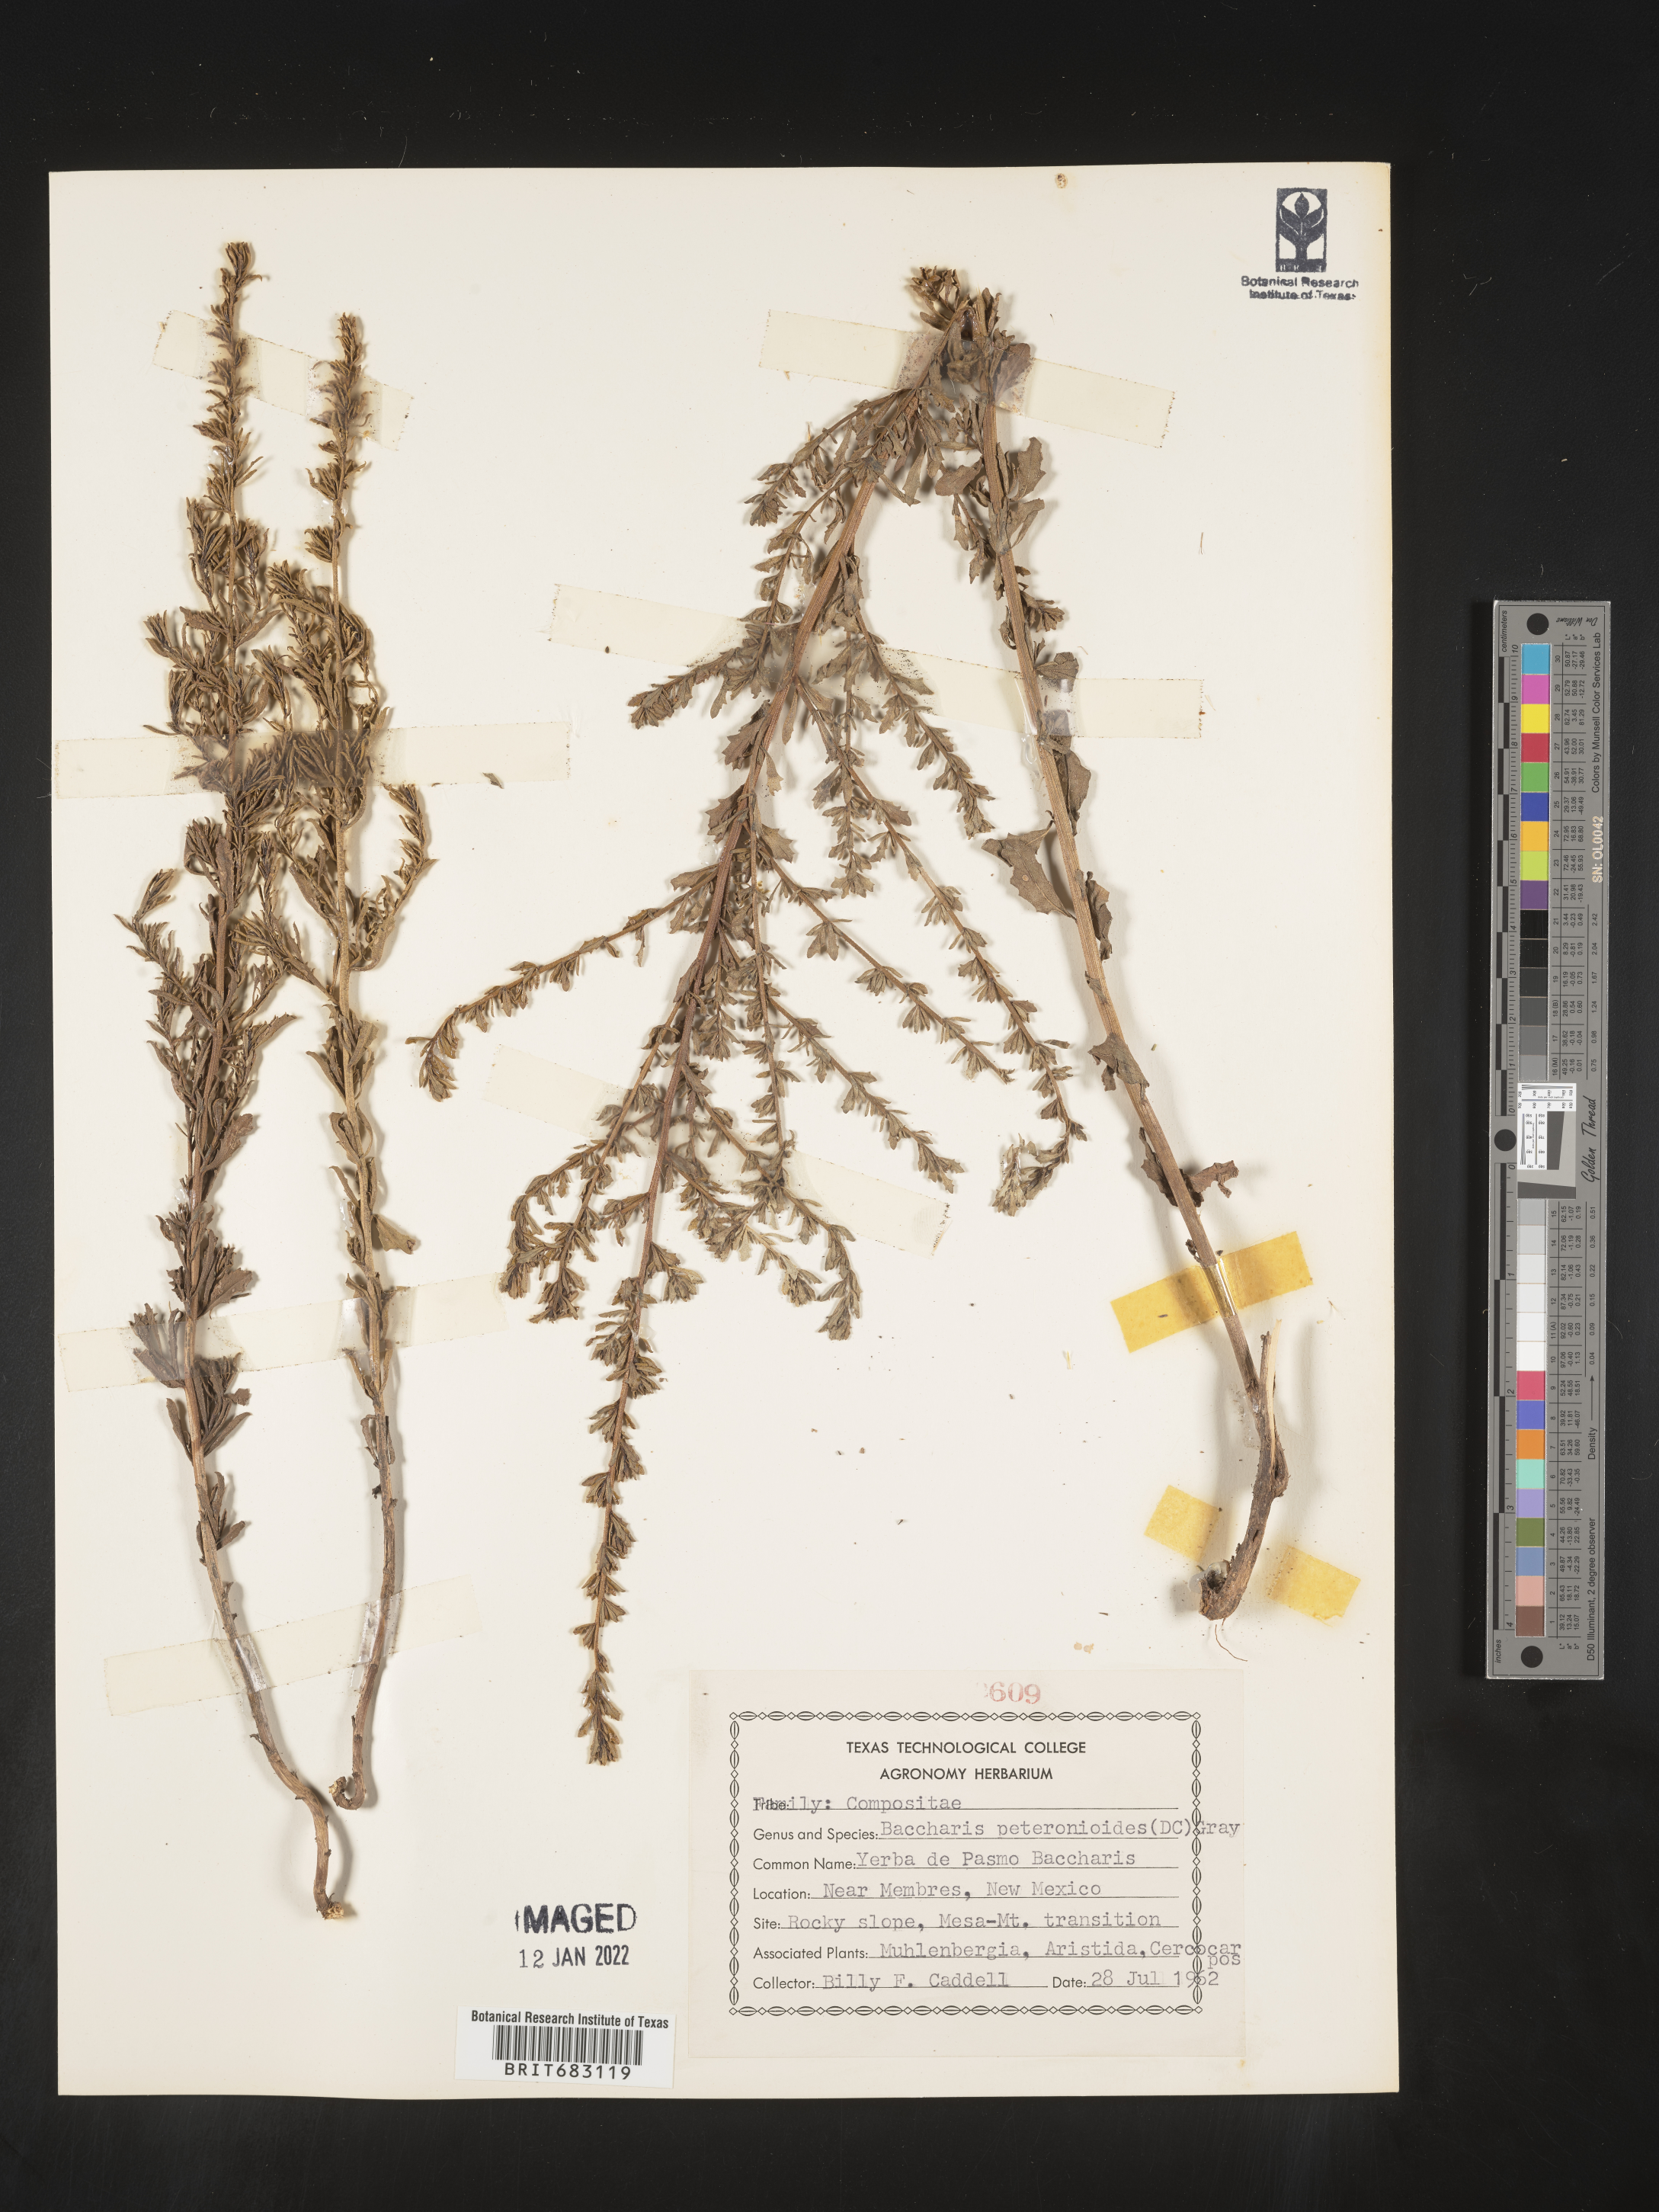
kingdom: Plantae
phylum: Tracheophyta
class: Magnoliopsida
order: Asterales
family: Asteraceae
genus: Baccharis
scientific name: Baccharis pteronioides
